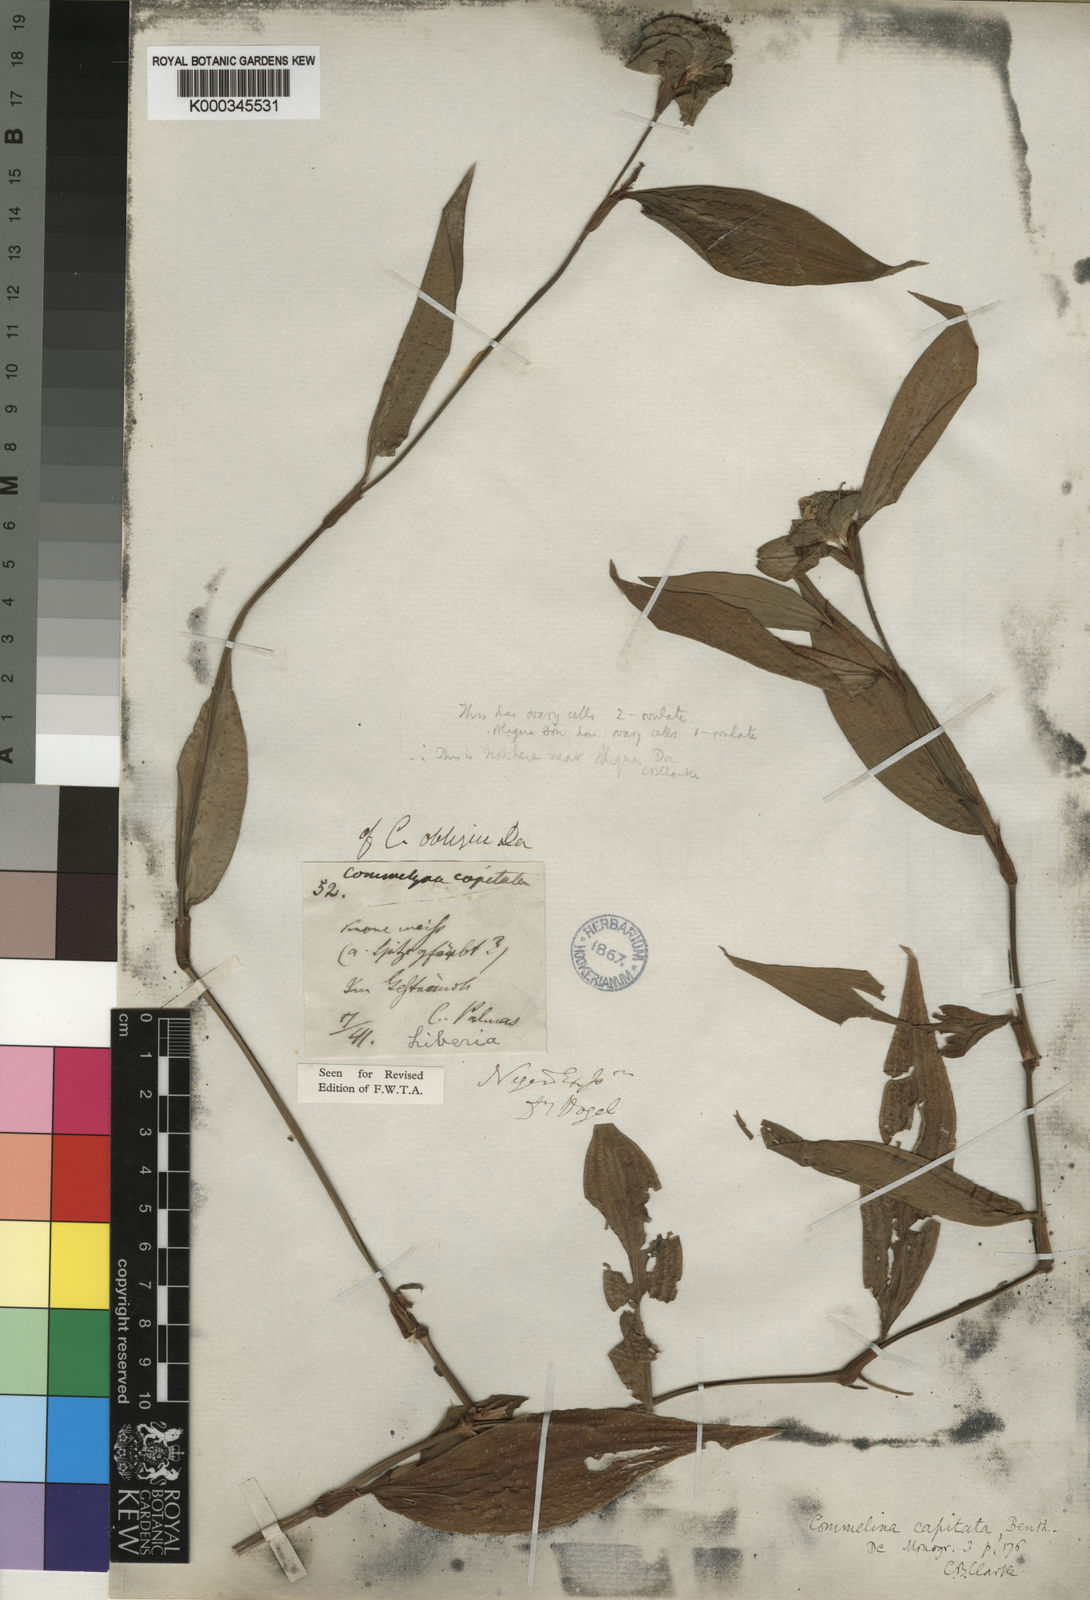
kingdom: Plantae
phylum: Tracheophyta
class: Liliopsida
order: Commelinales
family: Commelinaceae
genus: Commelina
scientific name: Commelina capitata
